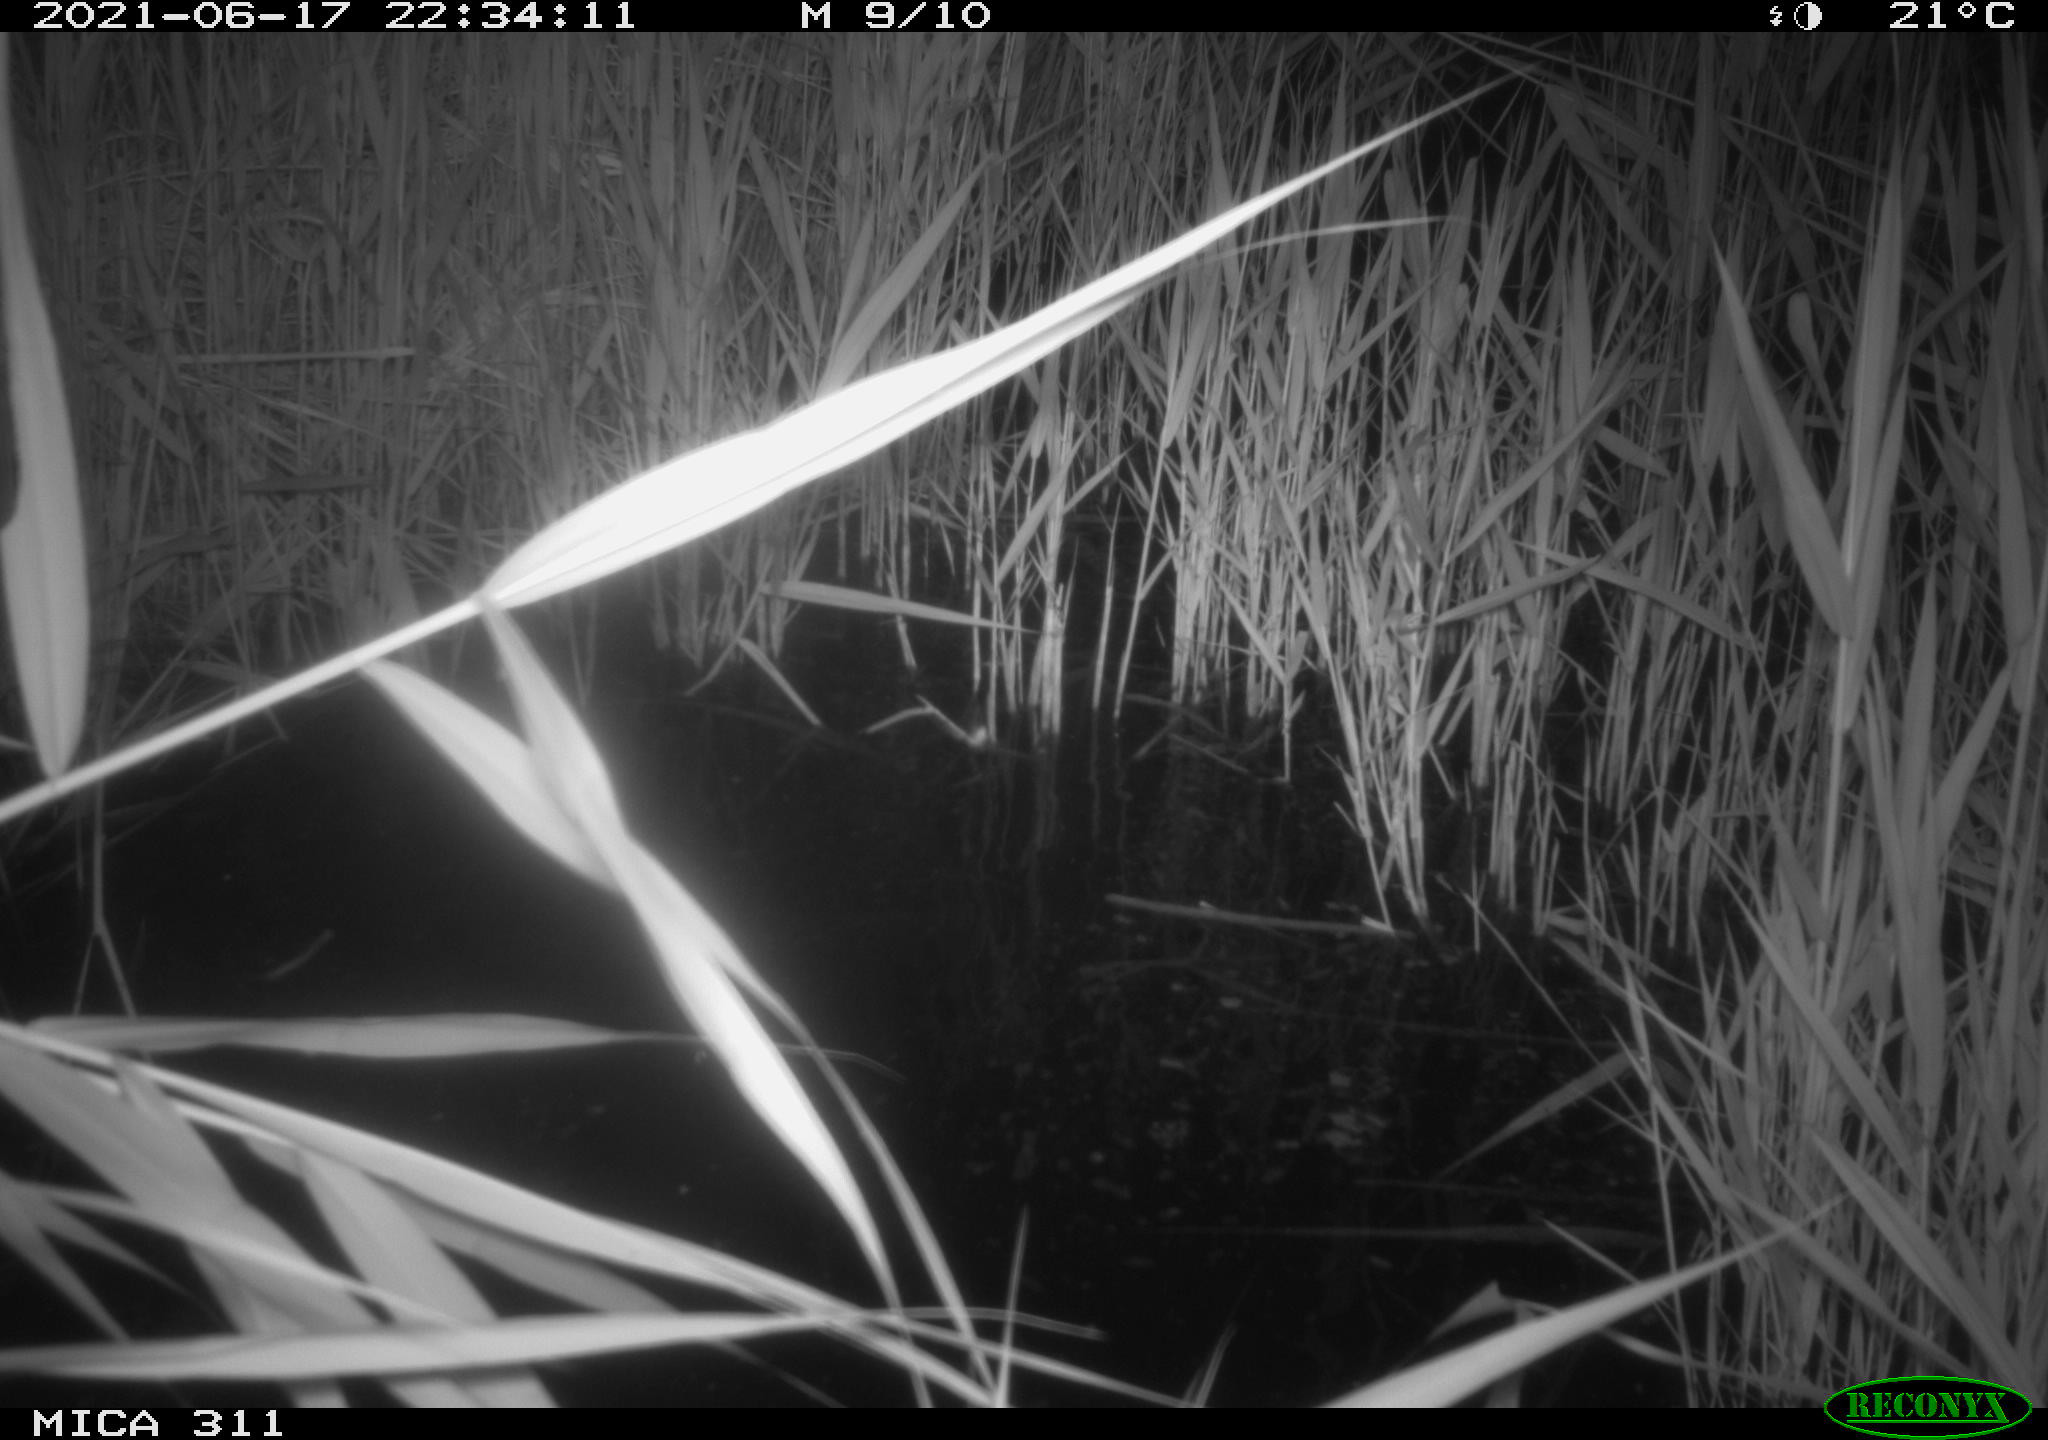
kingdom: Animalia
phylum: Chordata
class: Aves
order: Anseriformes
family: Anatidae
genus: Anas
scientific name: Anas platyrhynchos
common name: Mallard
